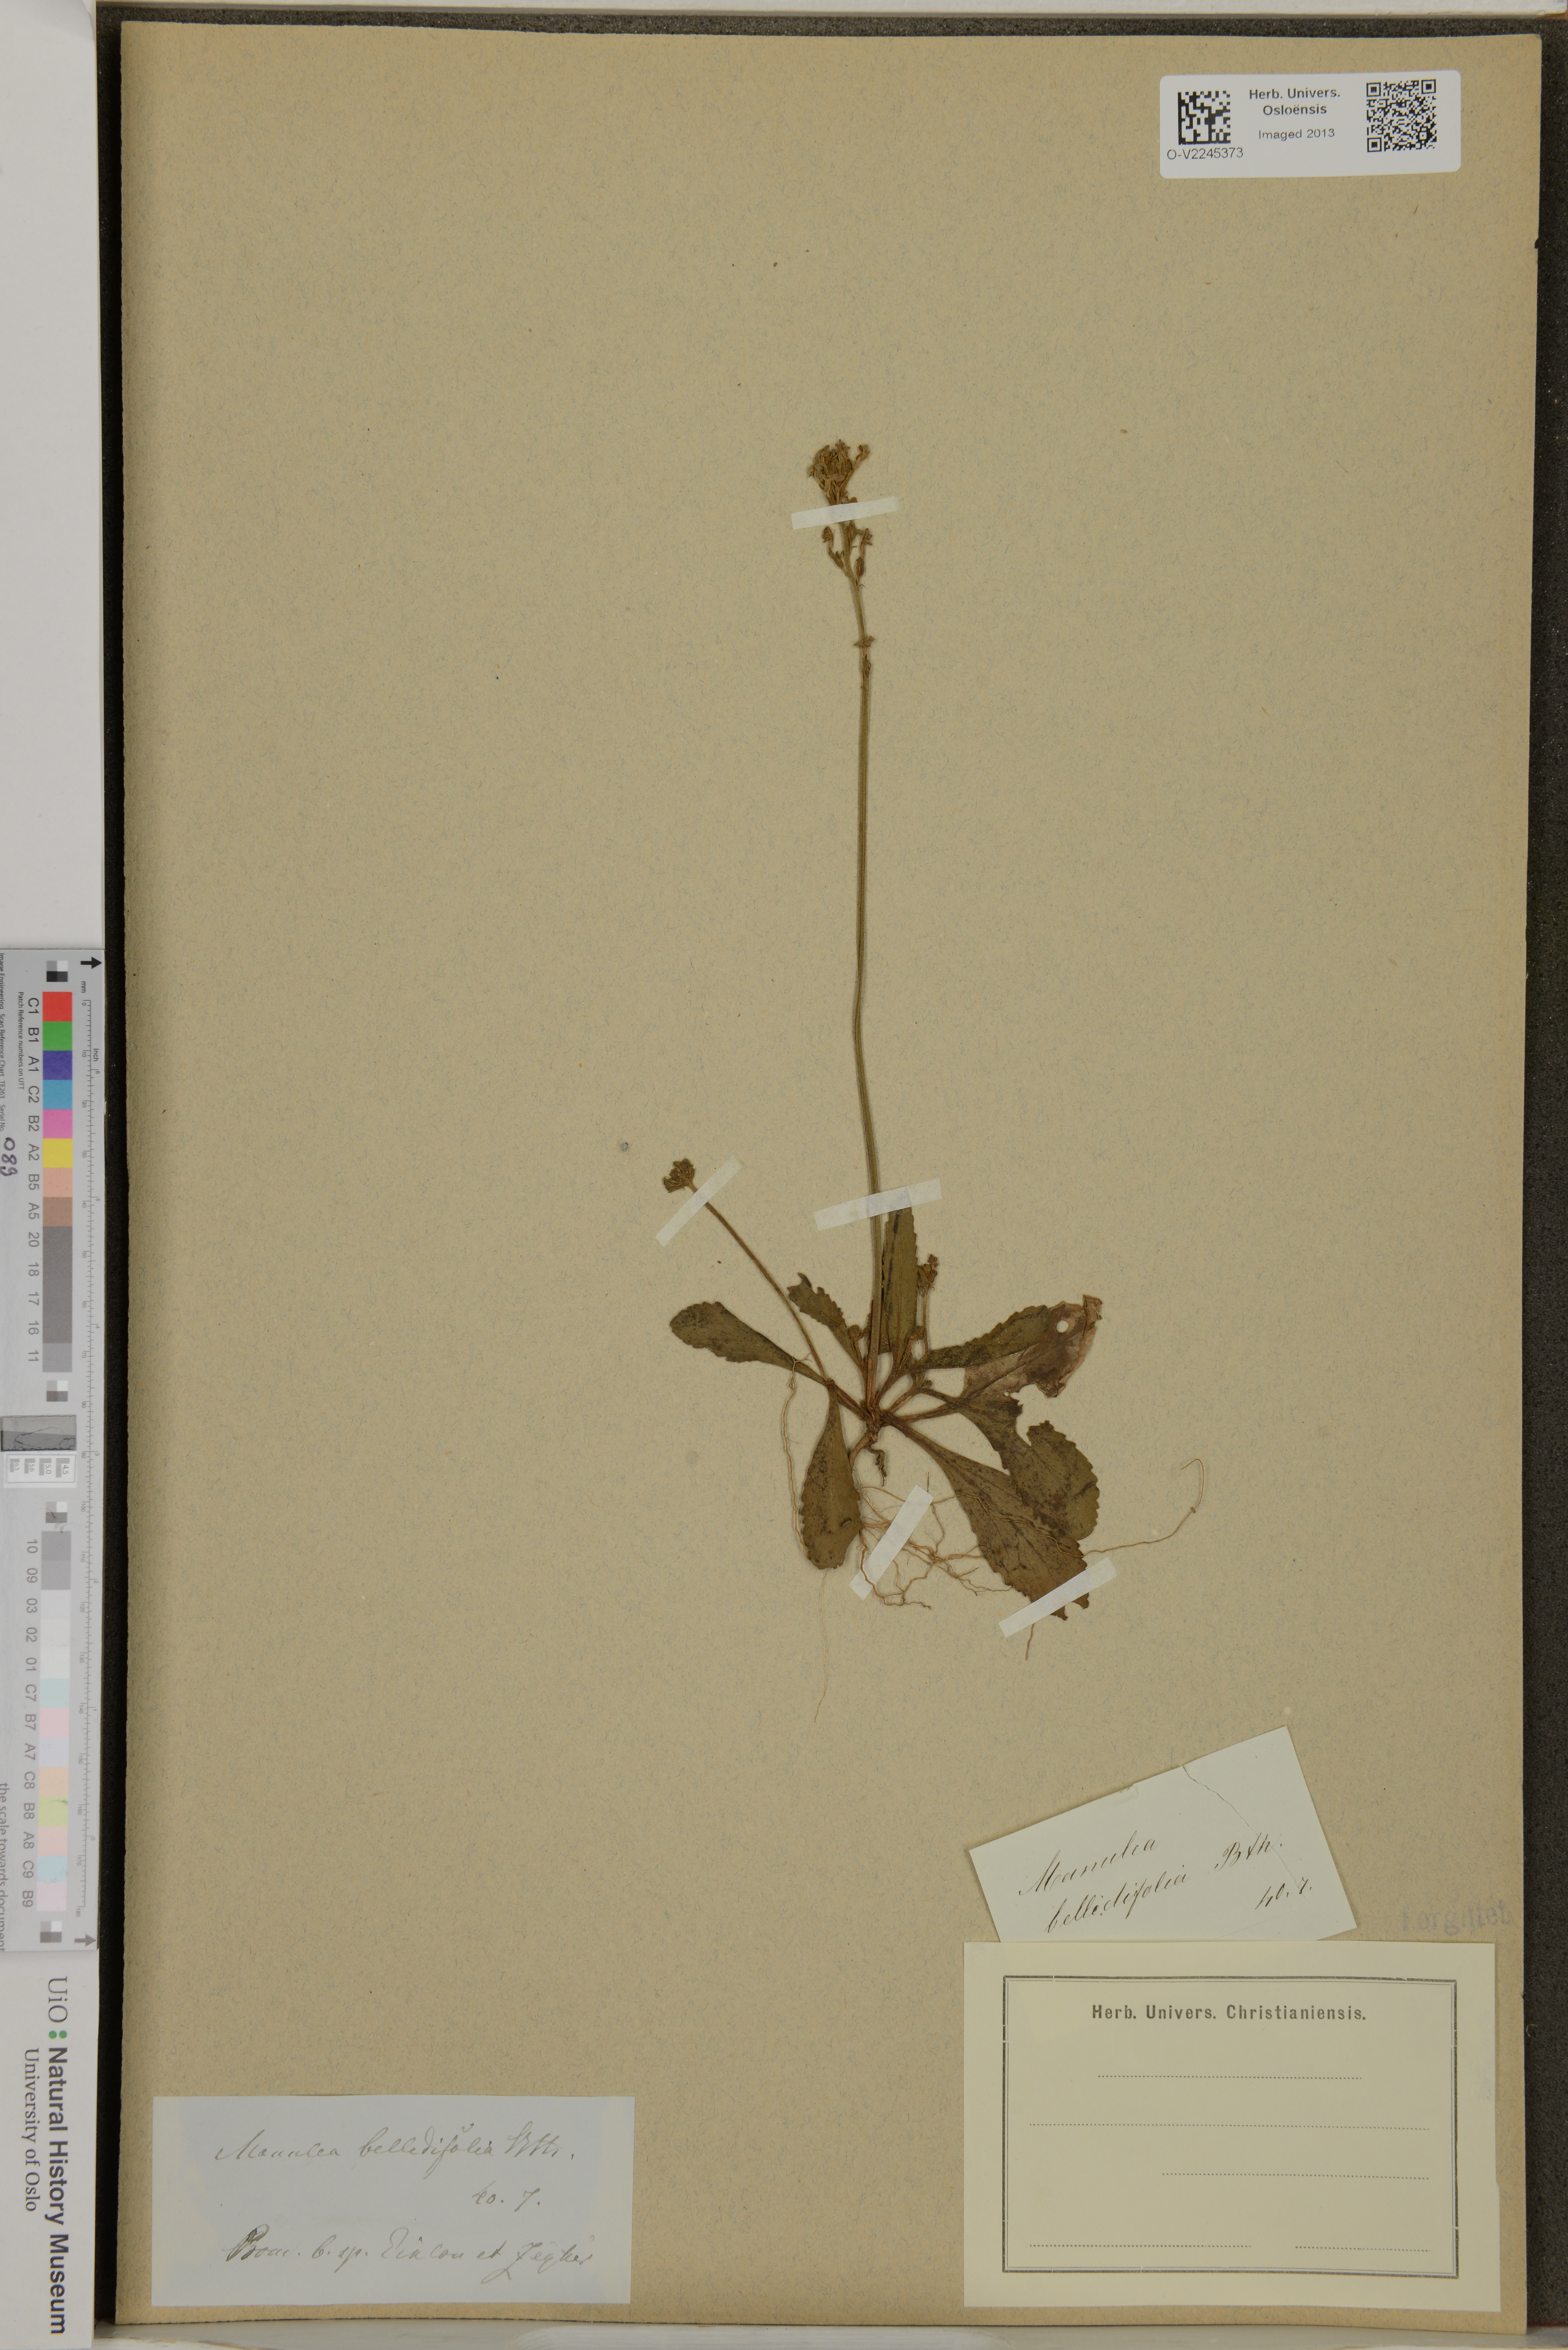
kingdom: Plantae
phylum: Tracheophyta
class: Magnoliopsida
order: Lamiales
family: Scrophulariaceae
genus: Manulea
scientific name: Manulea bellidifolia
